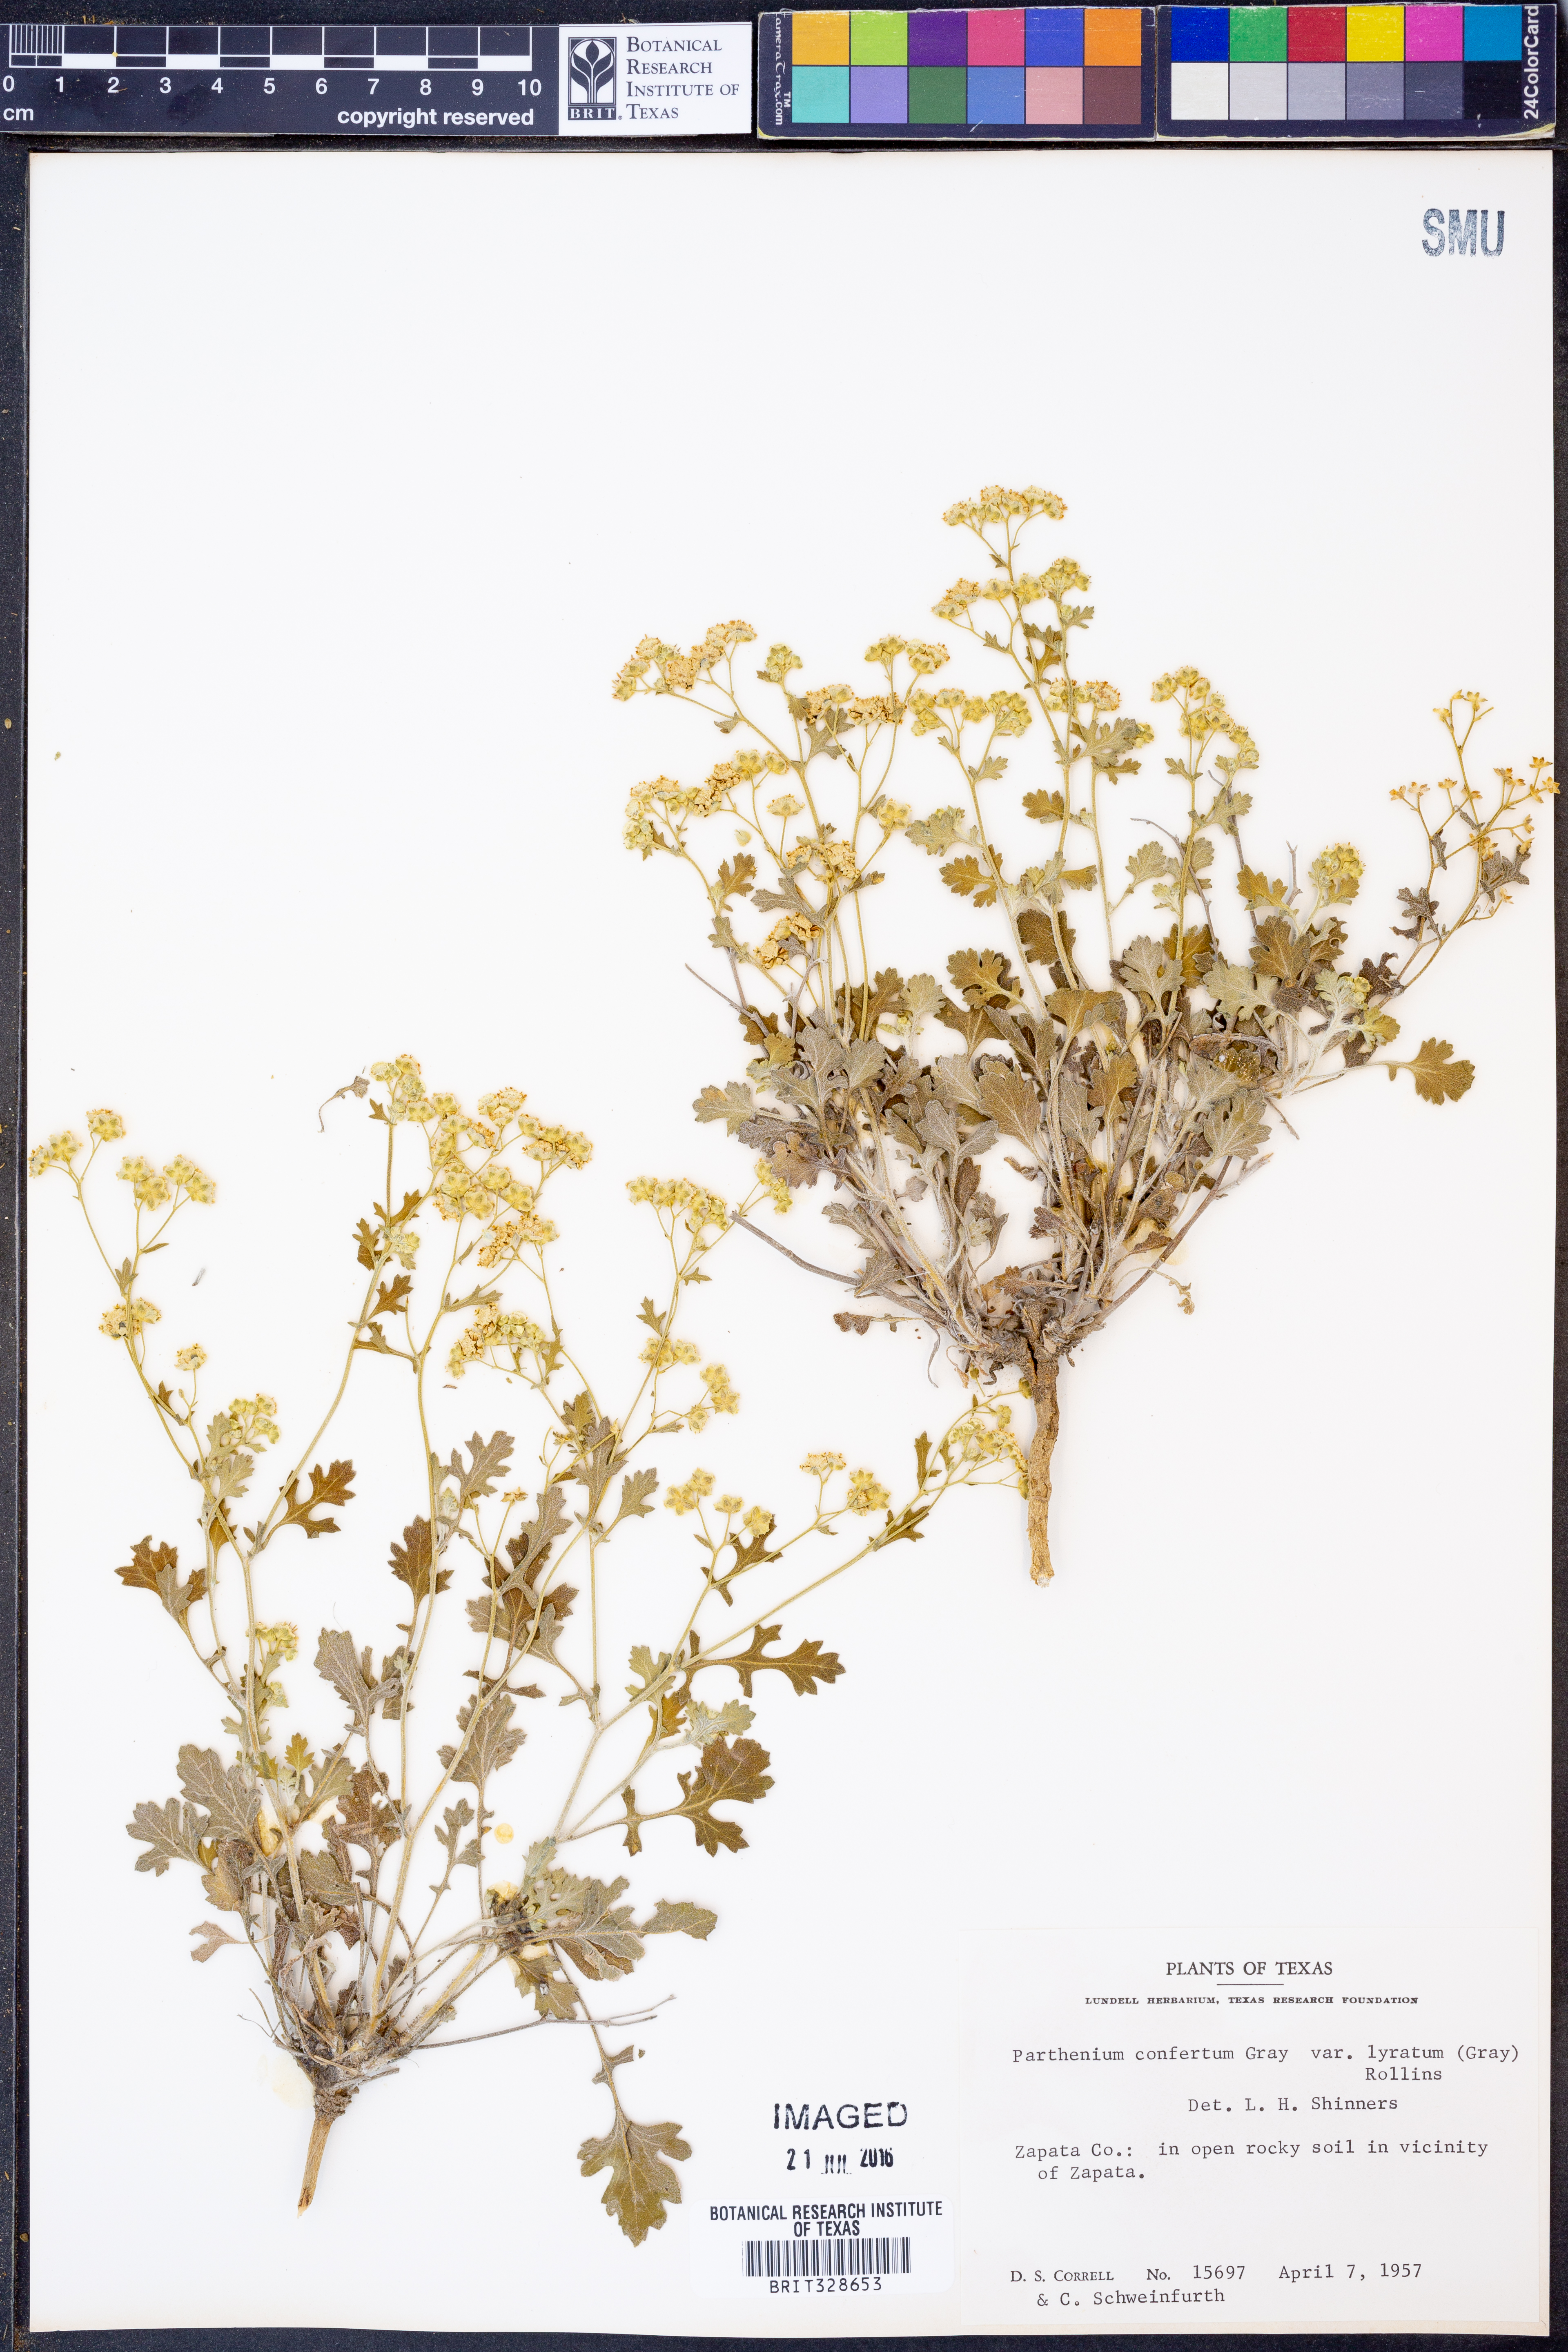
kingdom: Plantae
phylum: Tracheophyta
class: Magnoliopsida
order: Asterales
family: Asteraceae
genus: Parthenium
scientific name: Parthenium confertum
